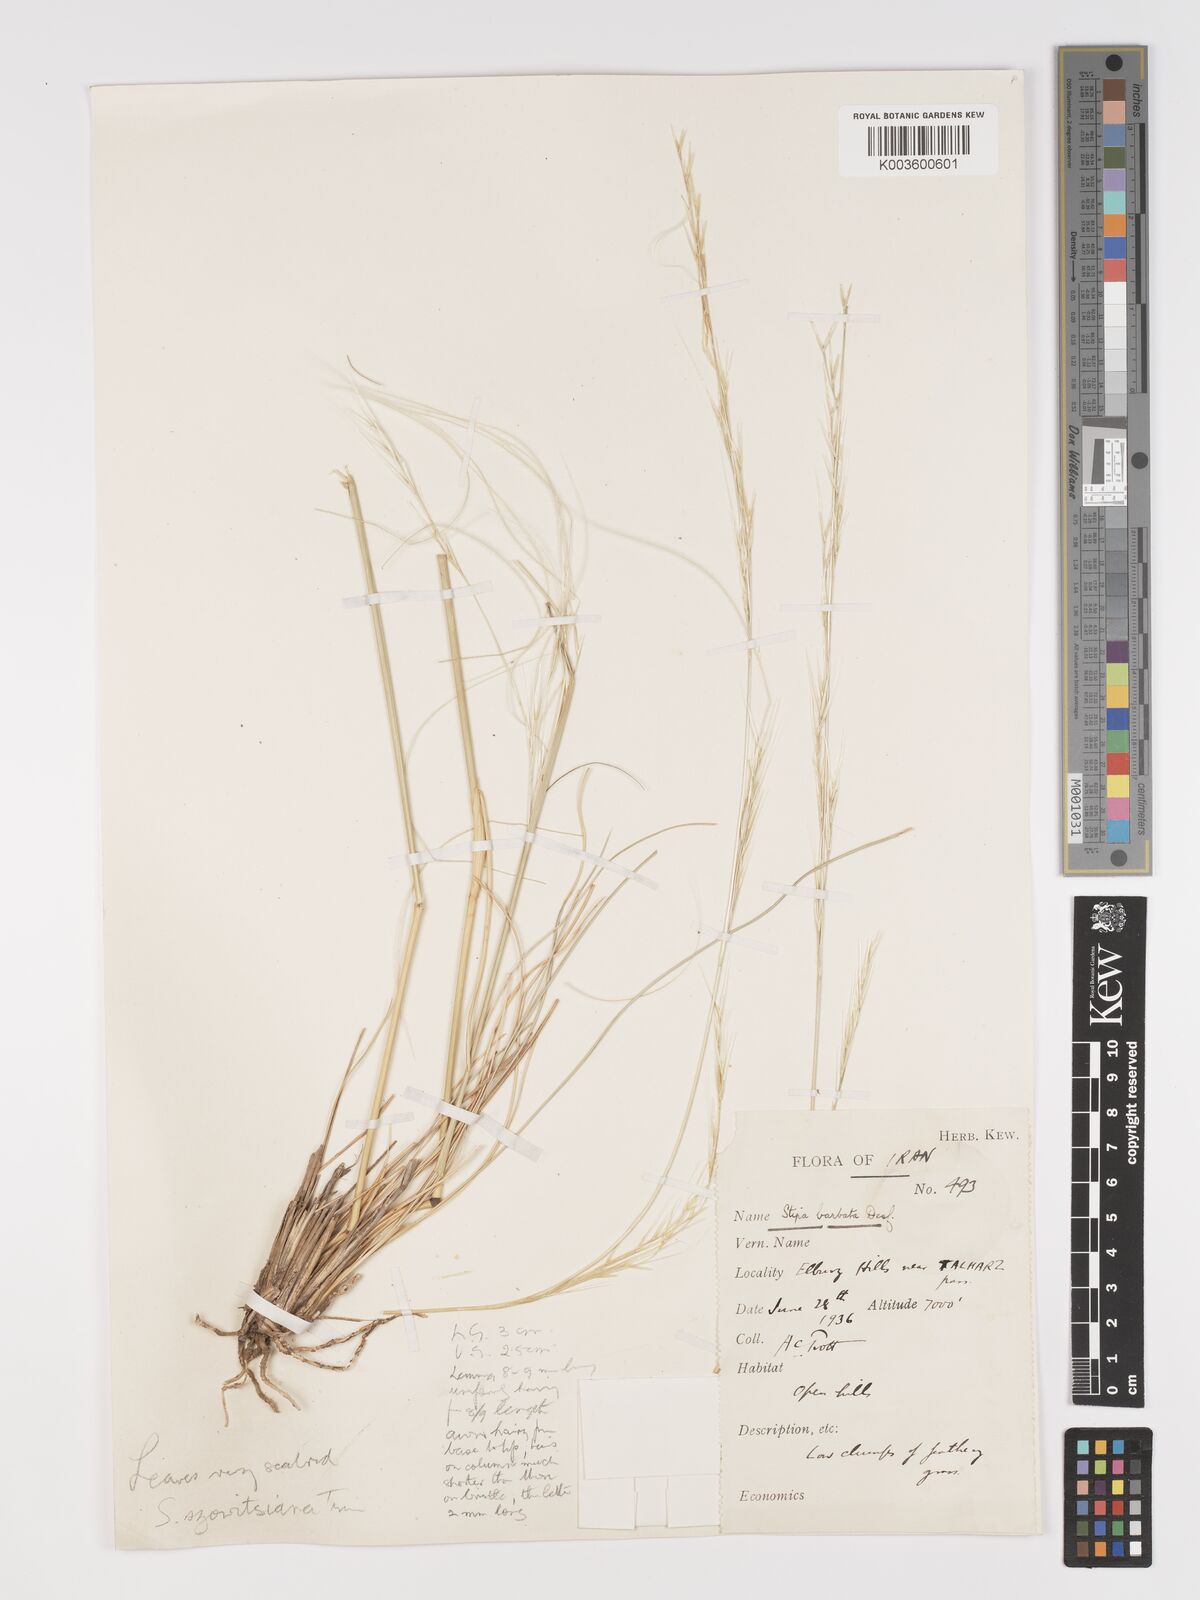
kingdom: Plantae
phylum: Tracheophyta
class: Liliopsida
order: Poales
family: Poaceae
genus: Stipa
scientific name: Stipa barbata
